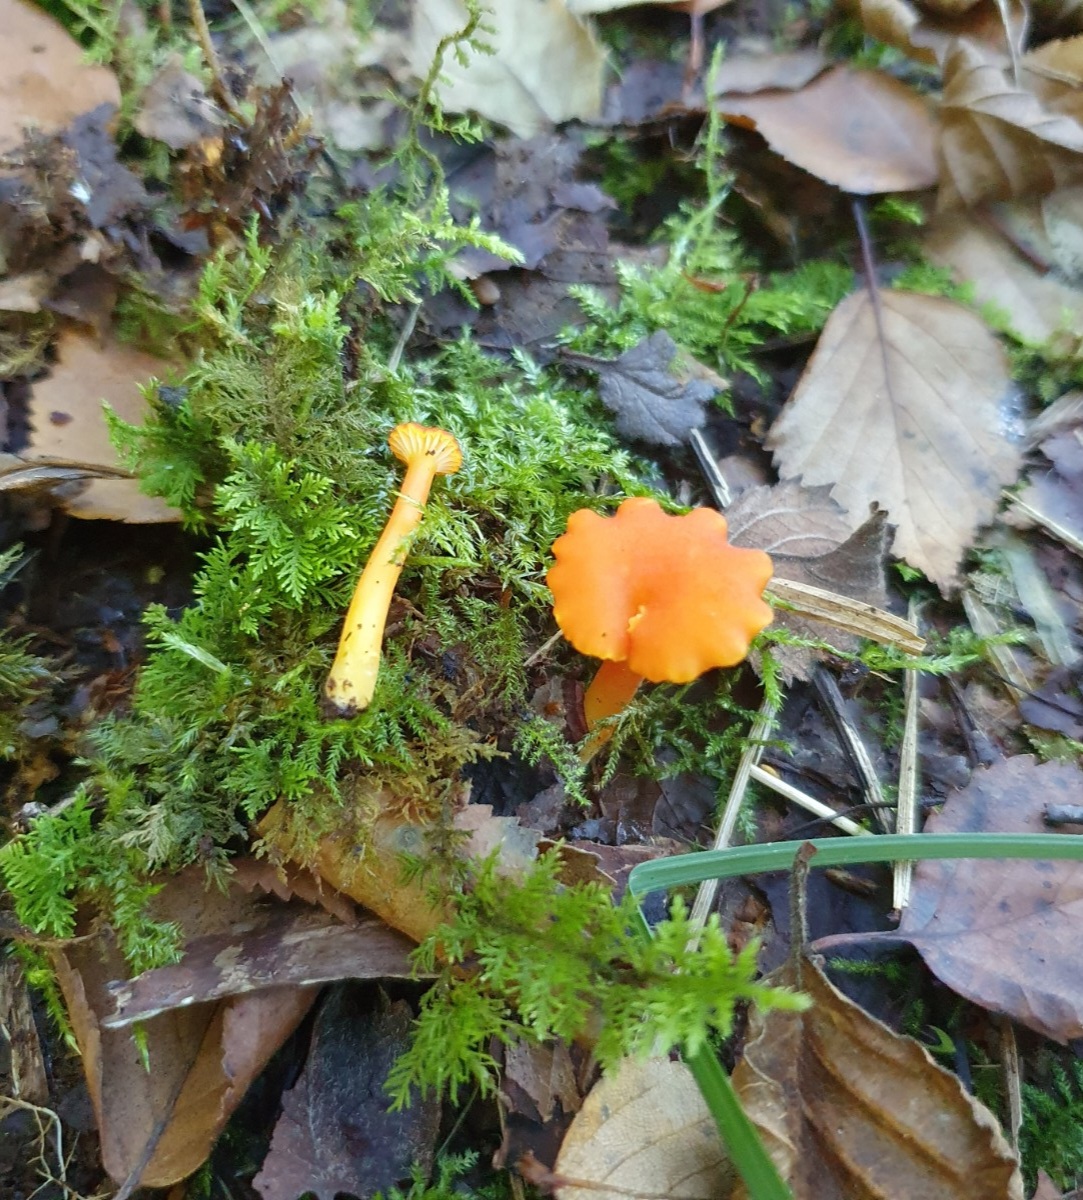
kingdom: Fungi
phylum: Basidiomycota
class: Agaricomycetes
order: Agaricales
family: Hygrophoraceae
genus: Hygrocybe
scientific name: Hygrocybe cantharellus
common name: kantarel-vokshat
